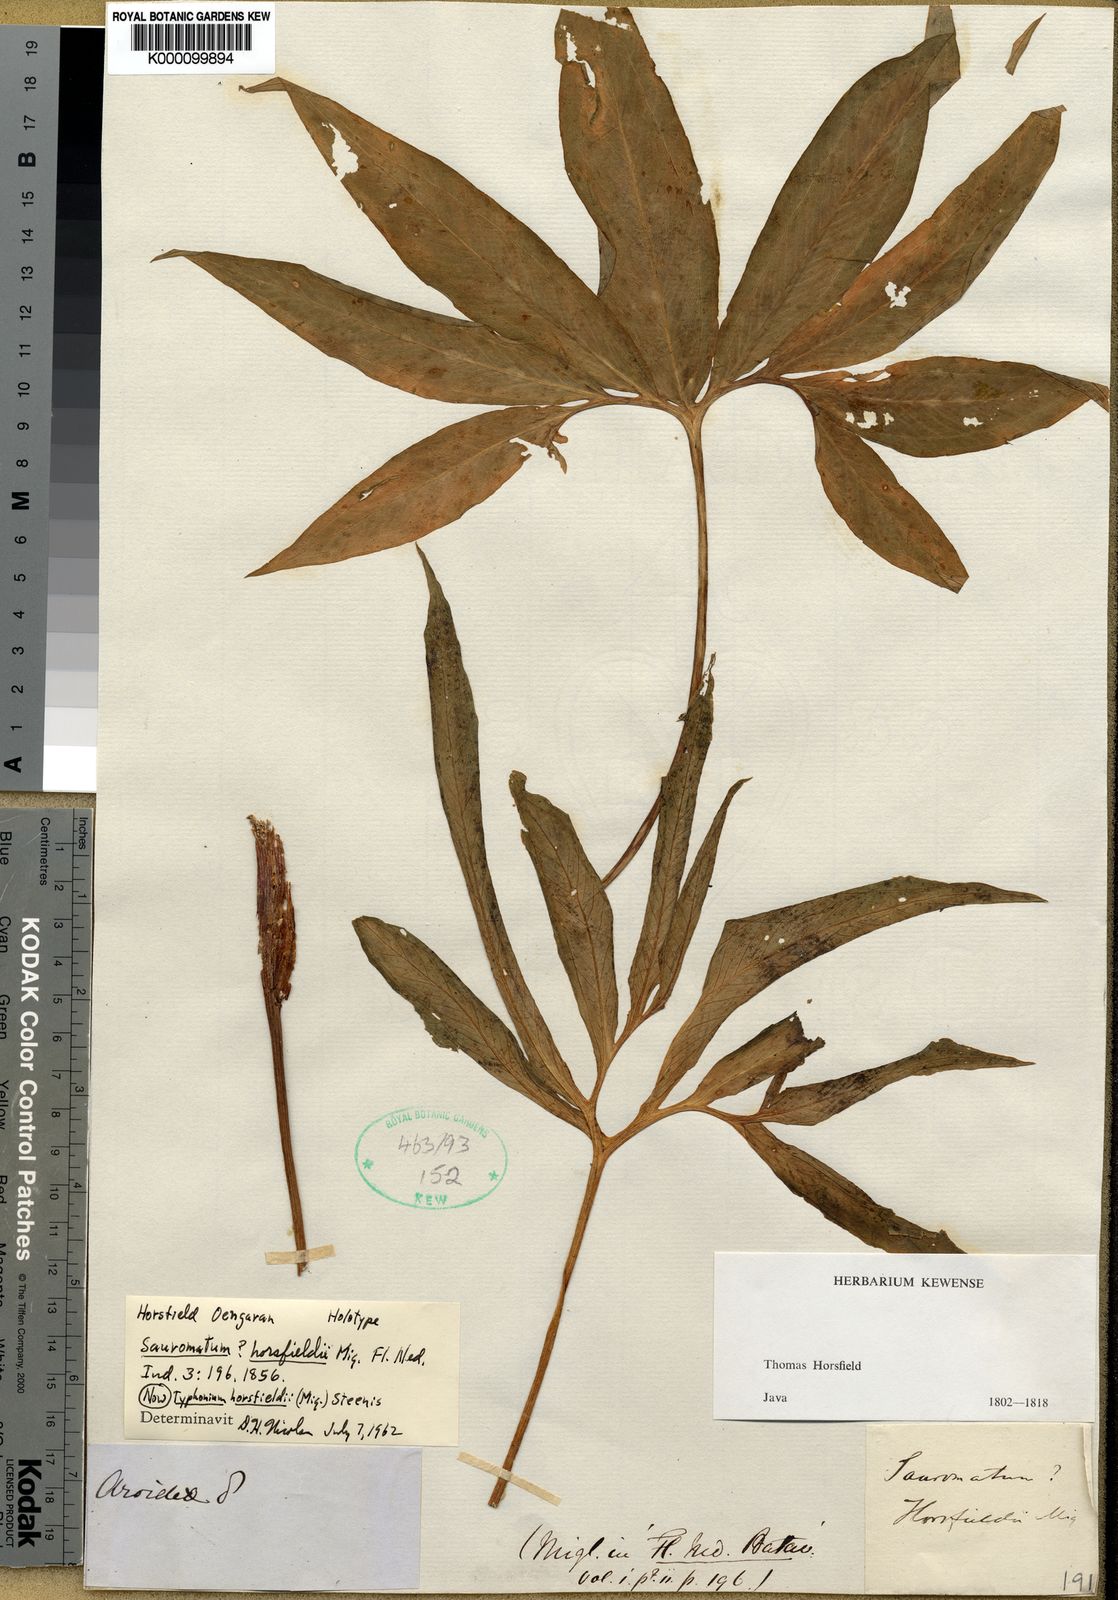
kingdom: Plantae
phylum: Tracheophyta
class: Liliopsida
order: Alismatales
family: Araceae
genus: Sauromatum
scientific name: Sauromatum horsfieldii
